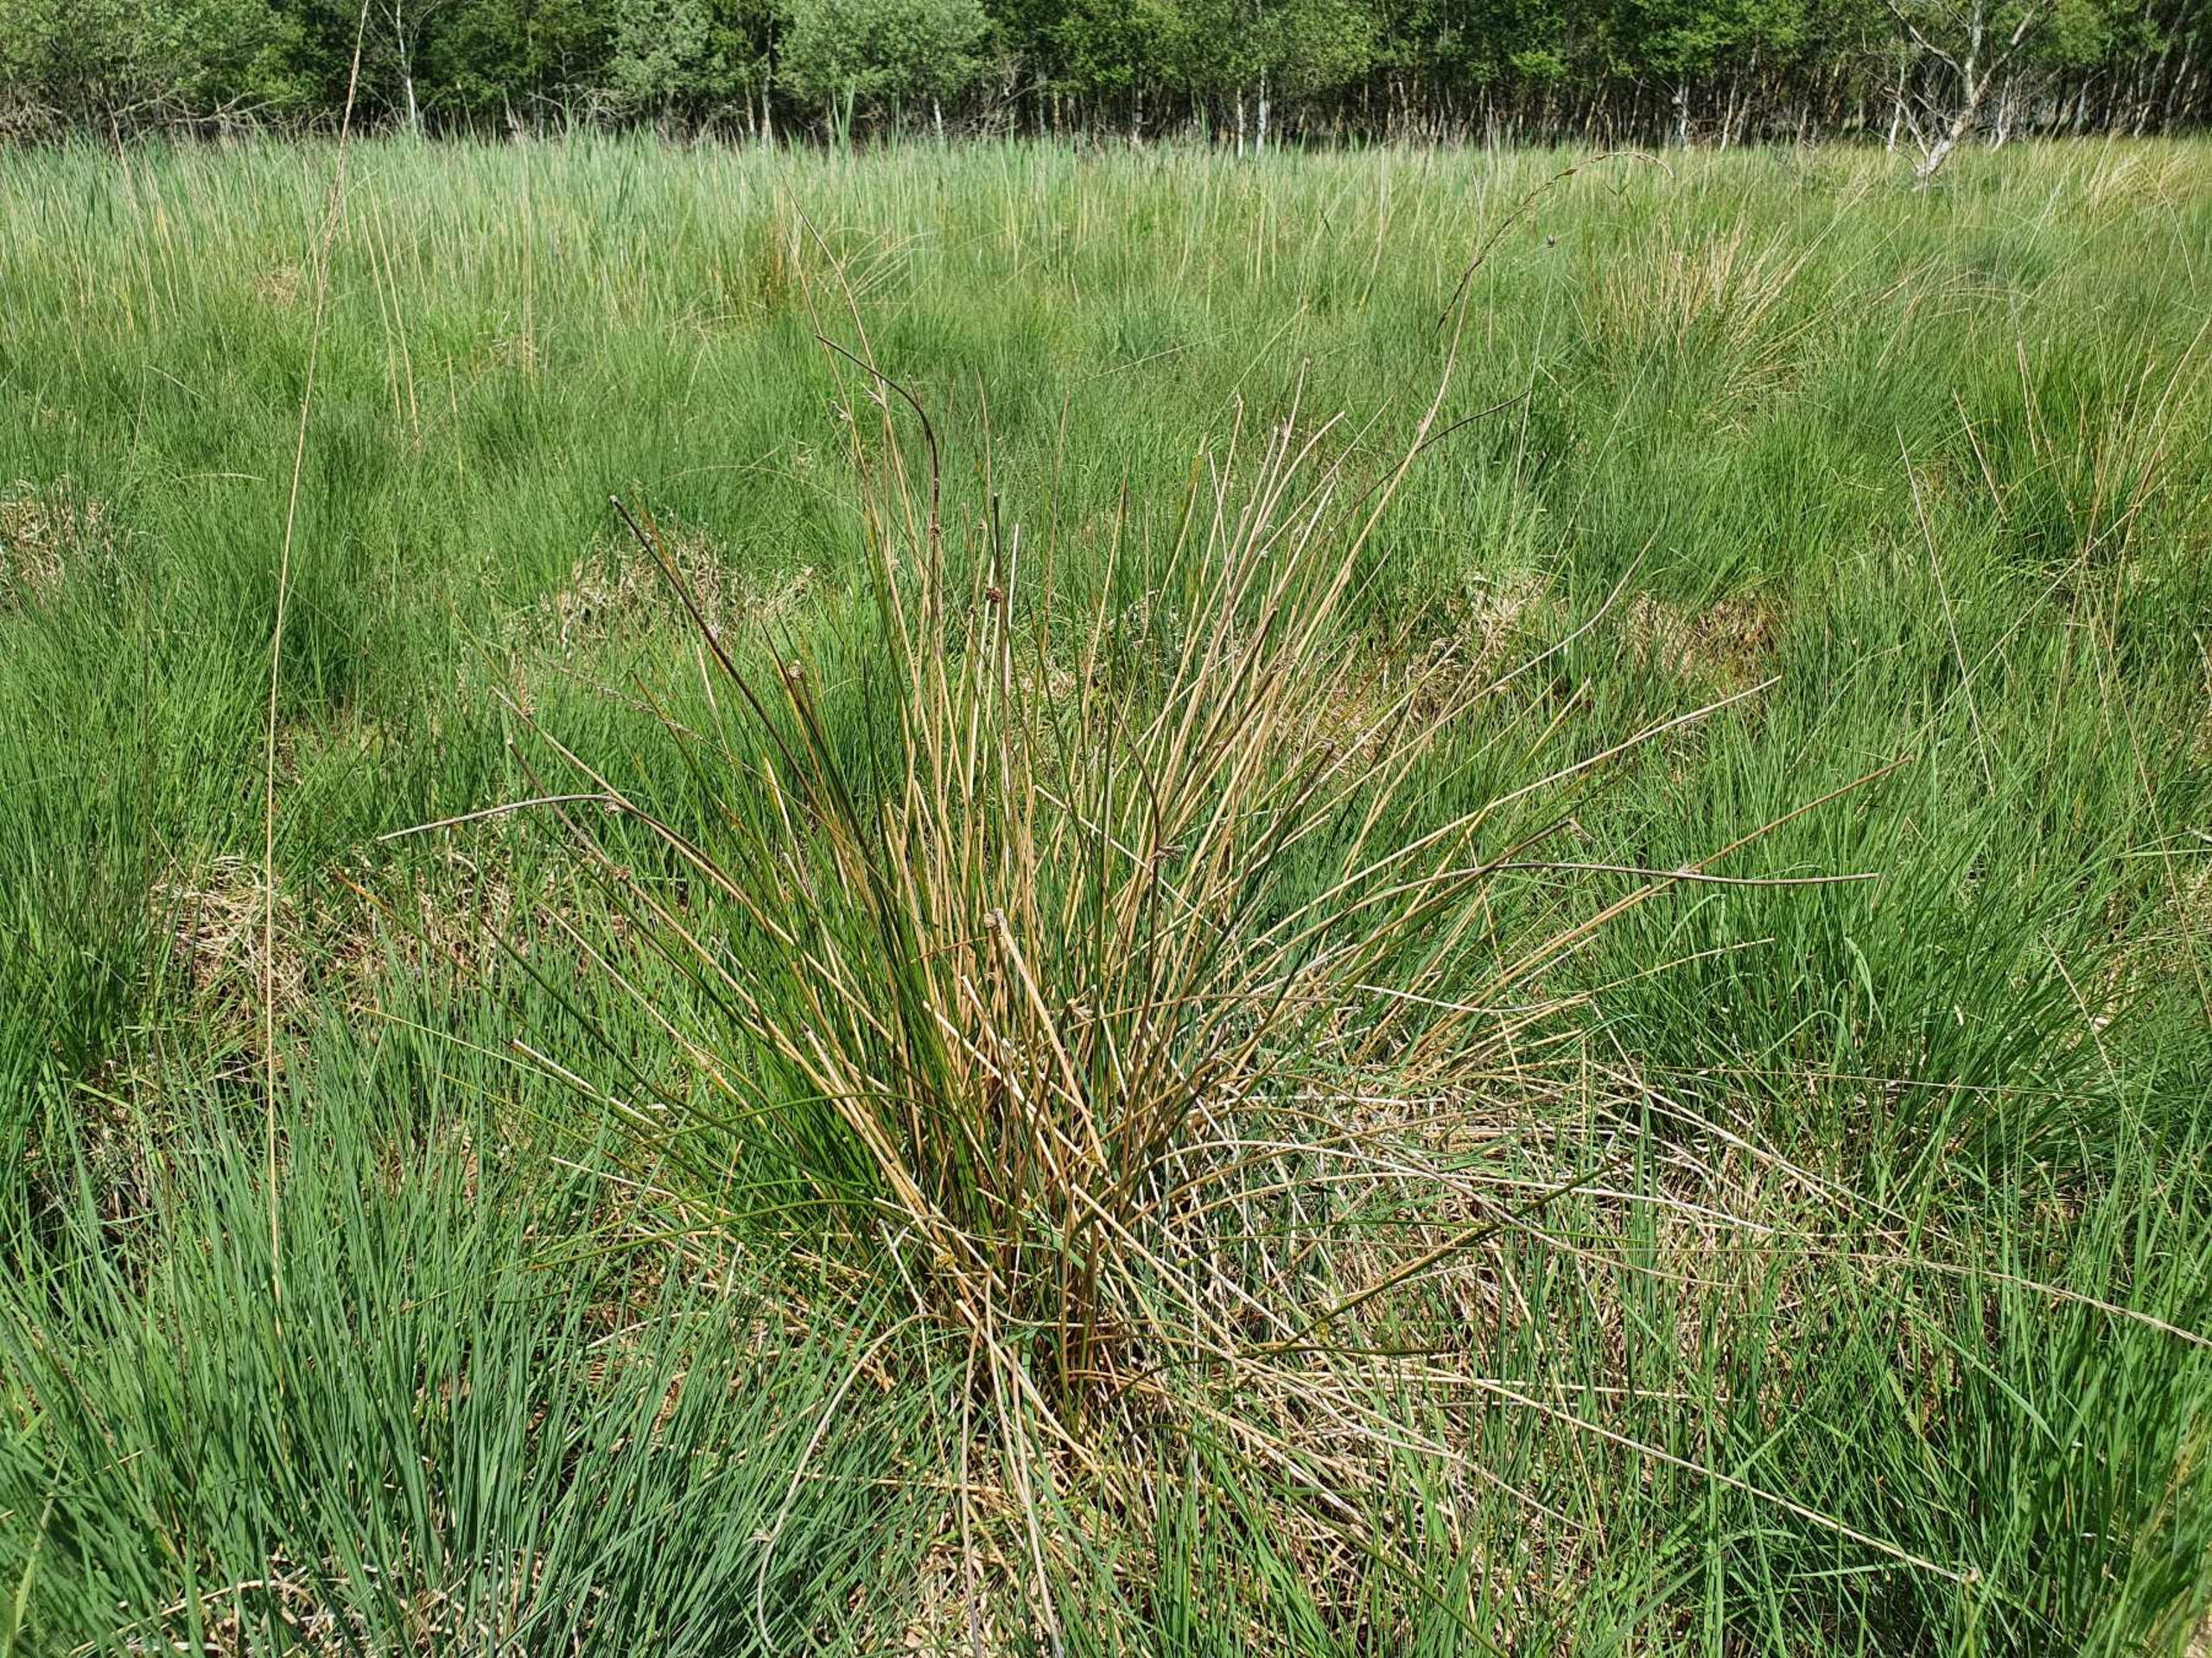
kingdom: Plantae
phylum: Tracheophyta
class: Liliopsida
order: Poales
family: Juncaceae
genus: Juncus
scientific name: Juncus effusus
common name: Lyse-siv
